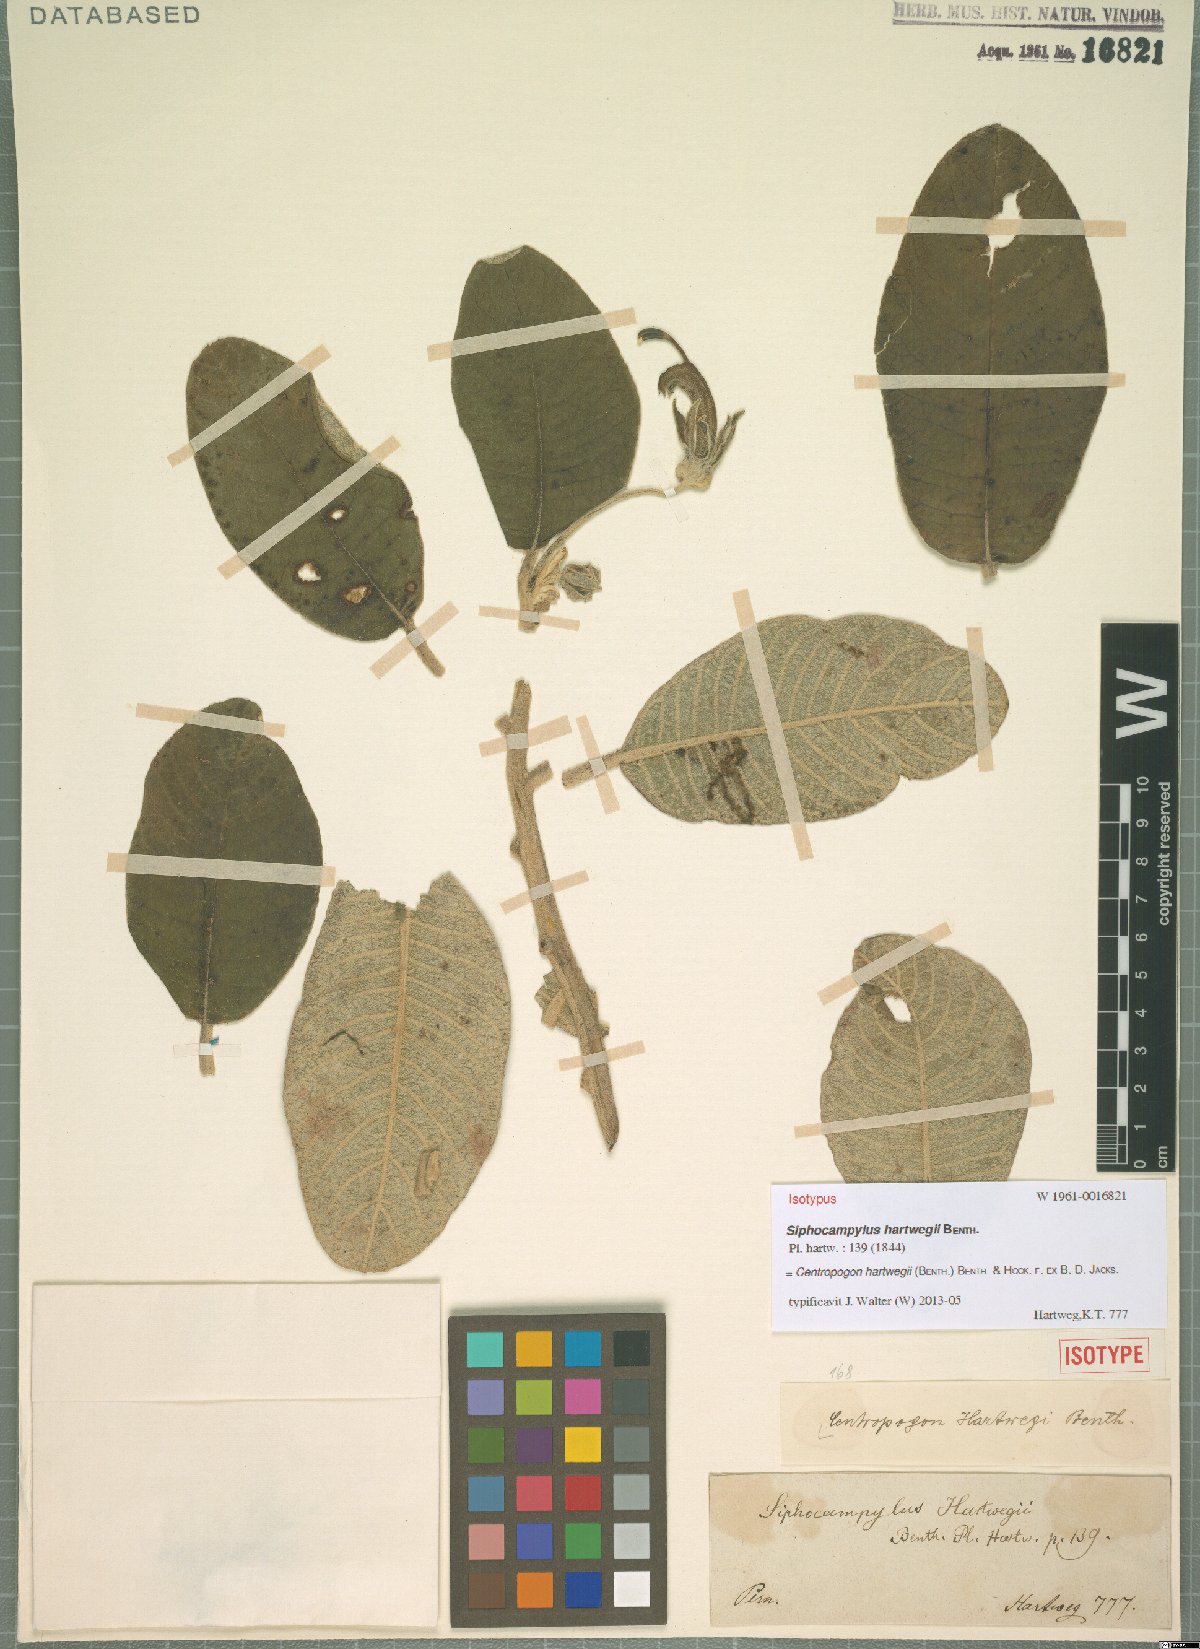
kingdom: Plantae
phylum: Tracheophyta
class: Magnoliopsida
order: Asterales
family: Campanulaceae
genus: Centropogon
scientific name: Centropogon hartwegii
